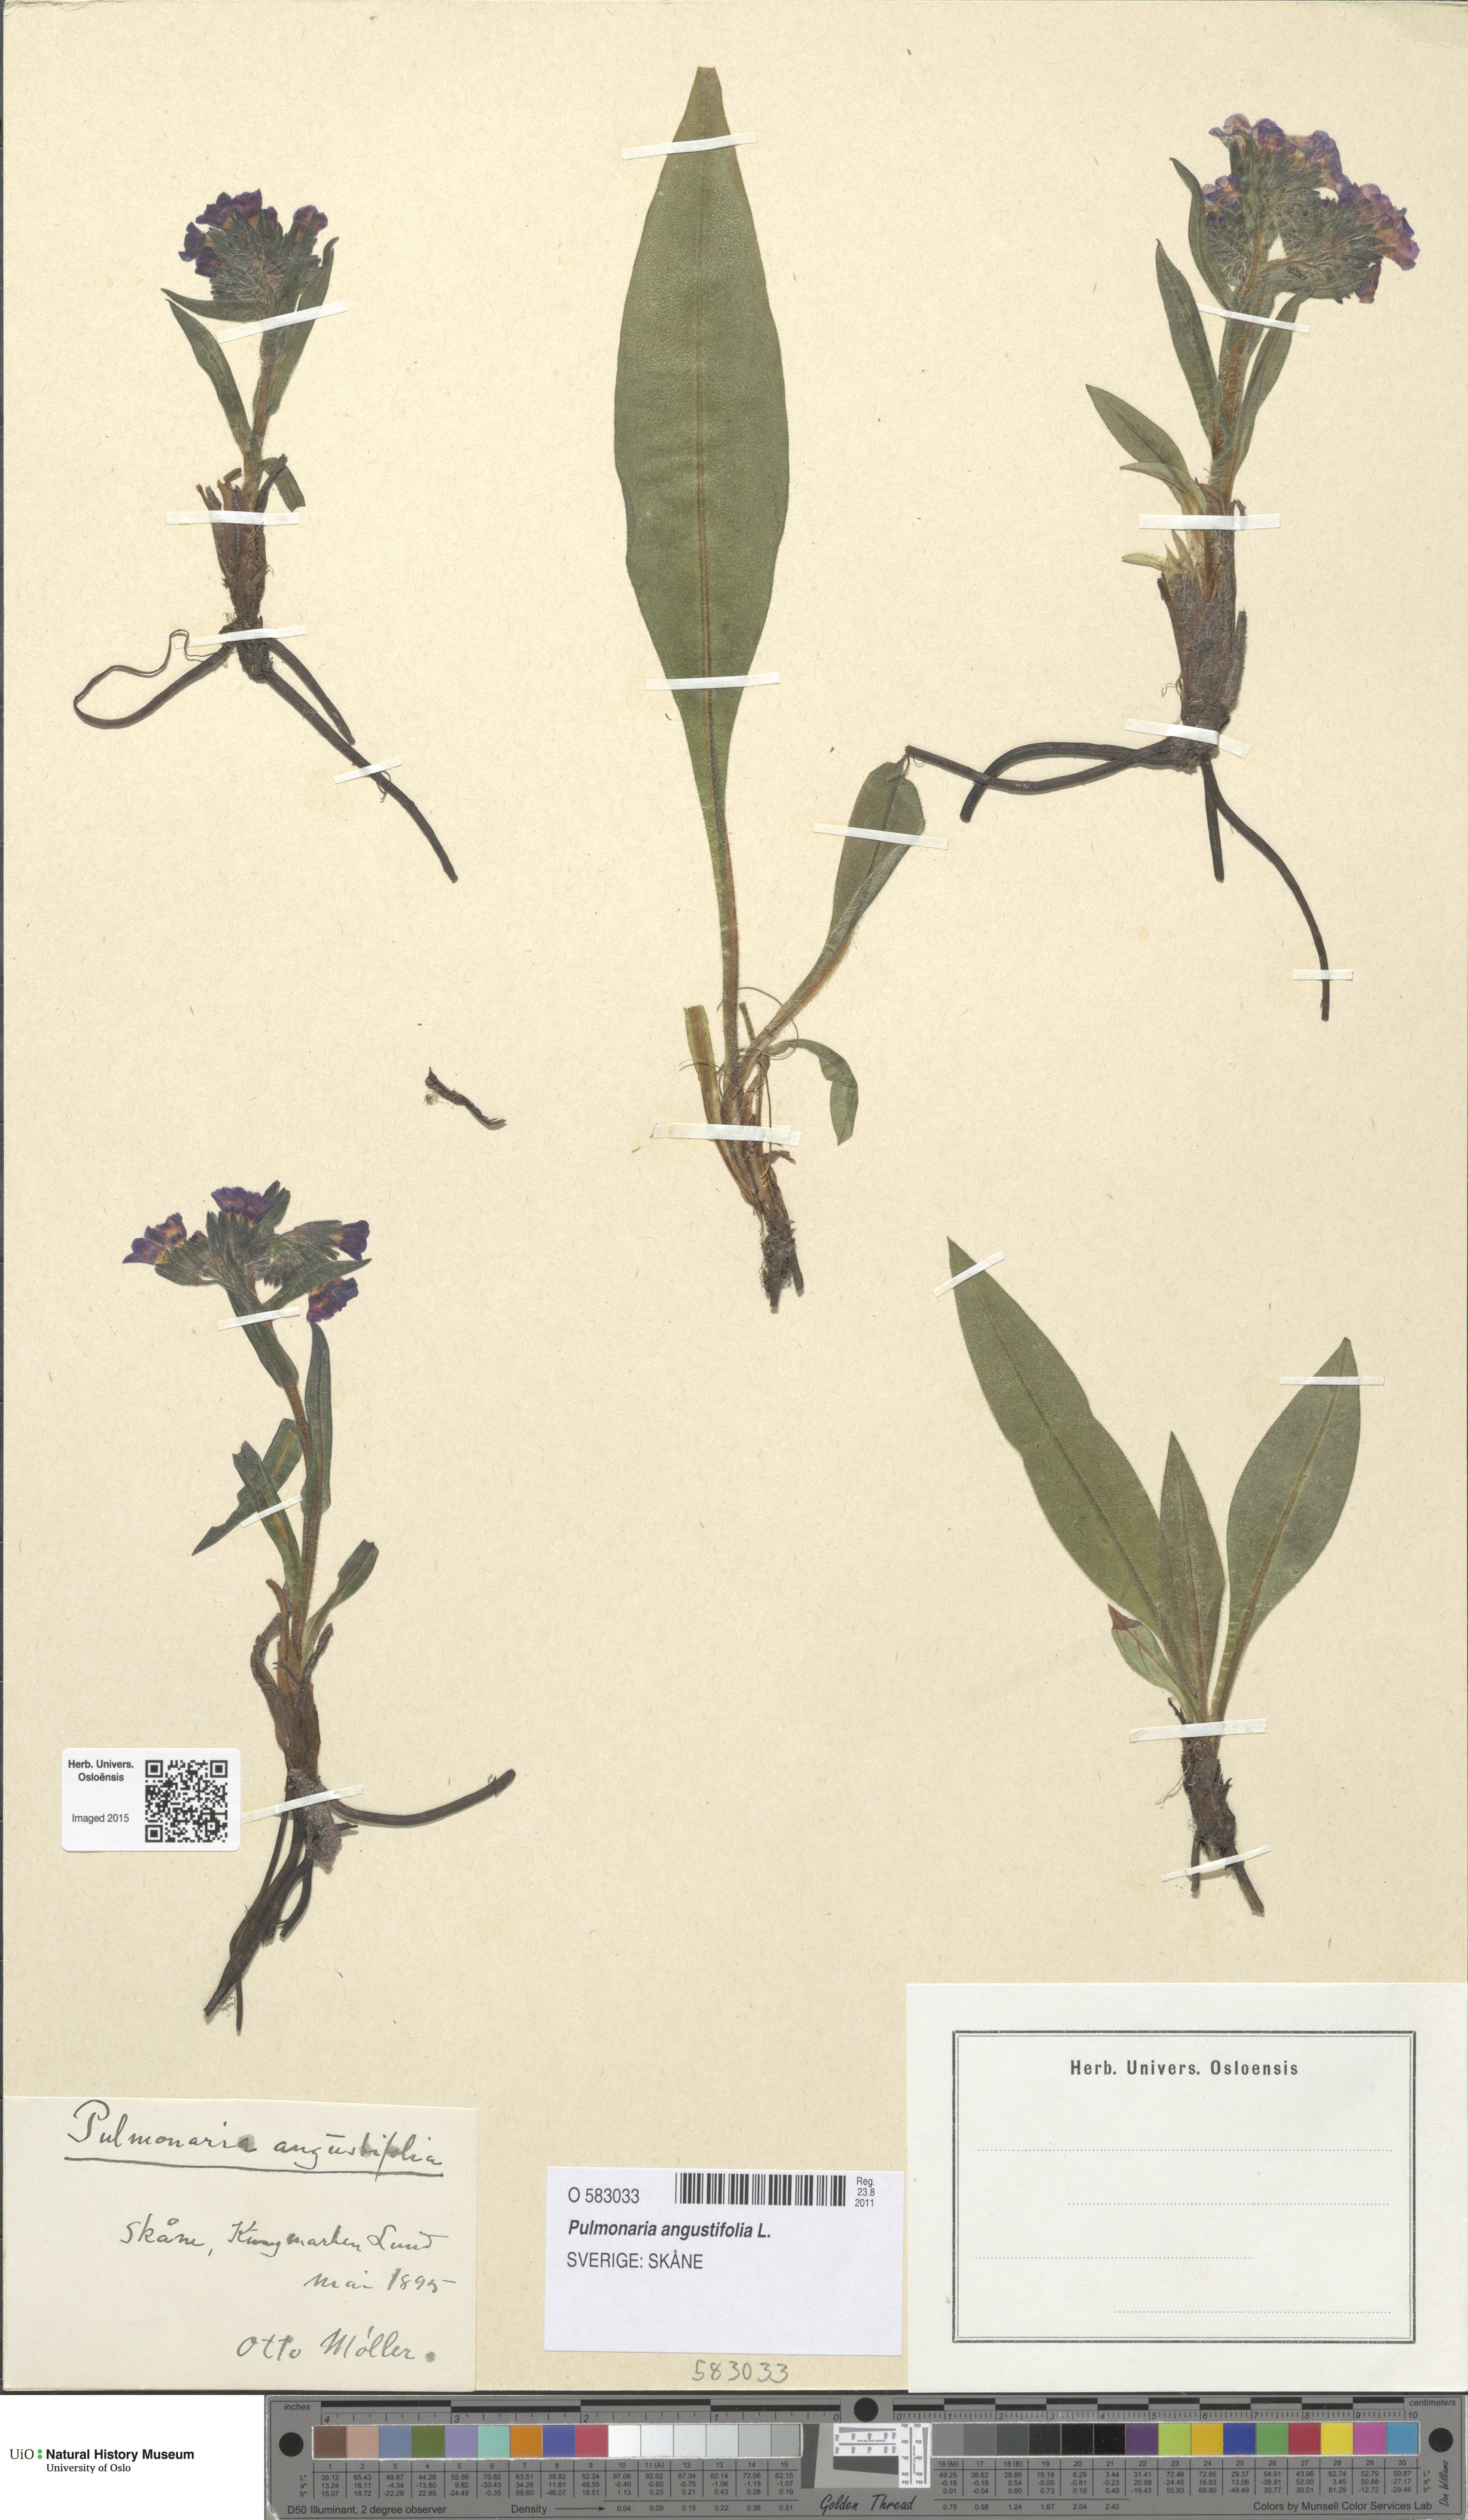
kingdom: Plantae
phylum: Tracheophyta
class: Magnoliopsida
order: Boraginales
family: Boraginaceae
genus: Pulmonaria
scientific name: Pulmonaria angustifolia
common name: Blue cowslip
